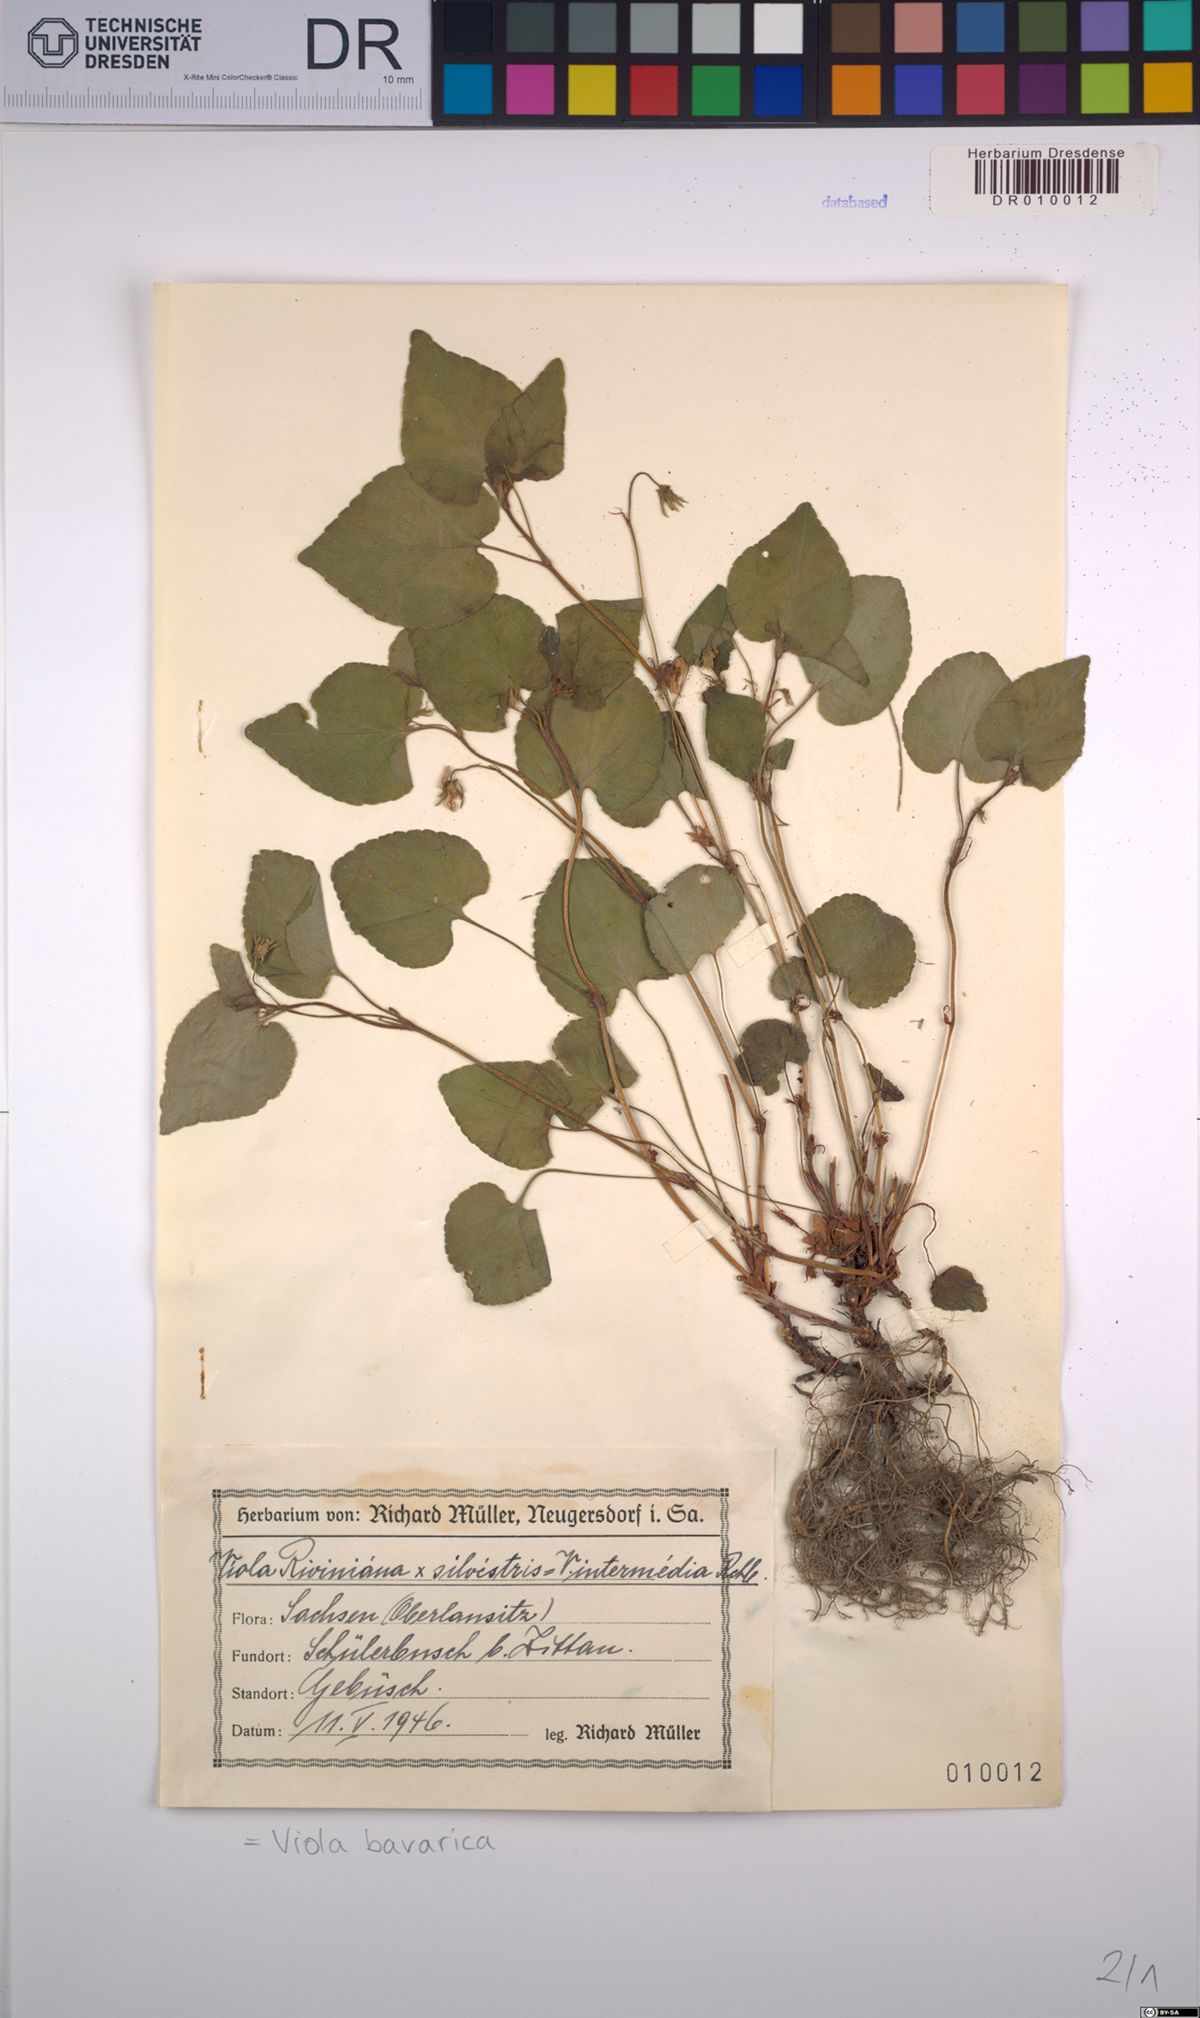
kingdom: Plantae
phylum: Tracheophyta
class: Magnoliopsida
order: Malpighiales
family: Violaceae
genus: Viola
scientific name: Viola bavarica
